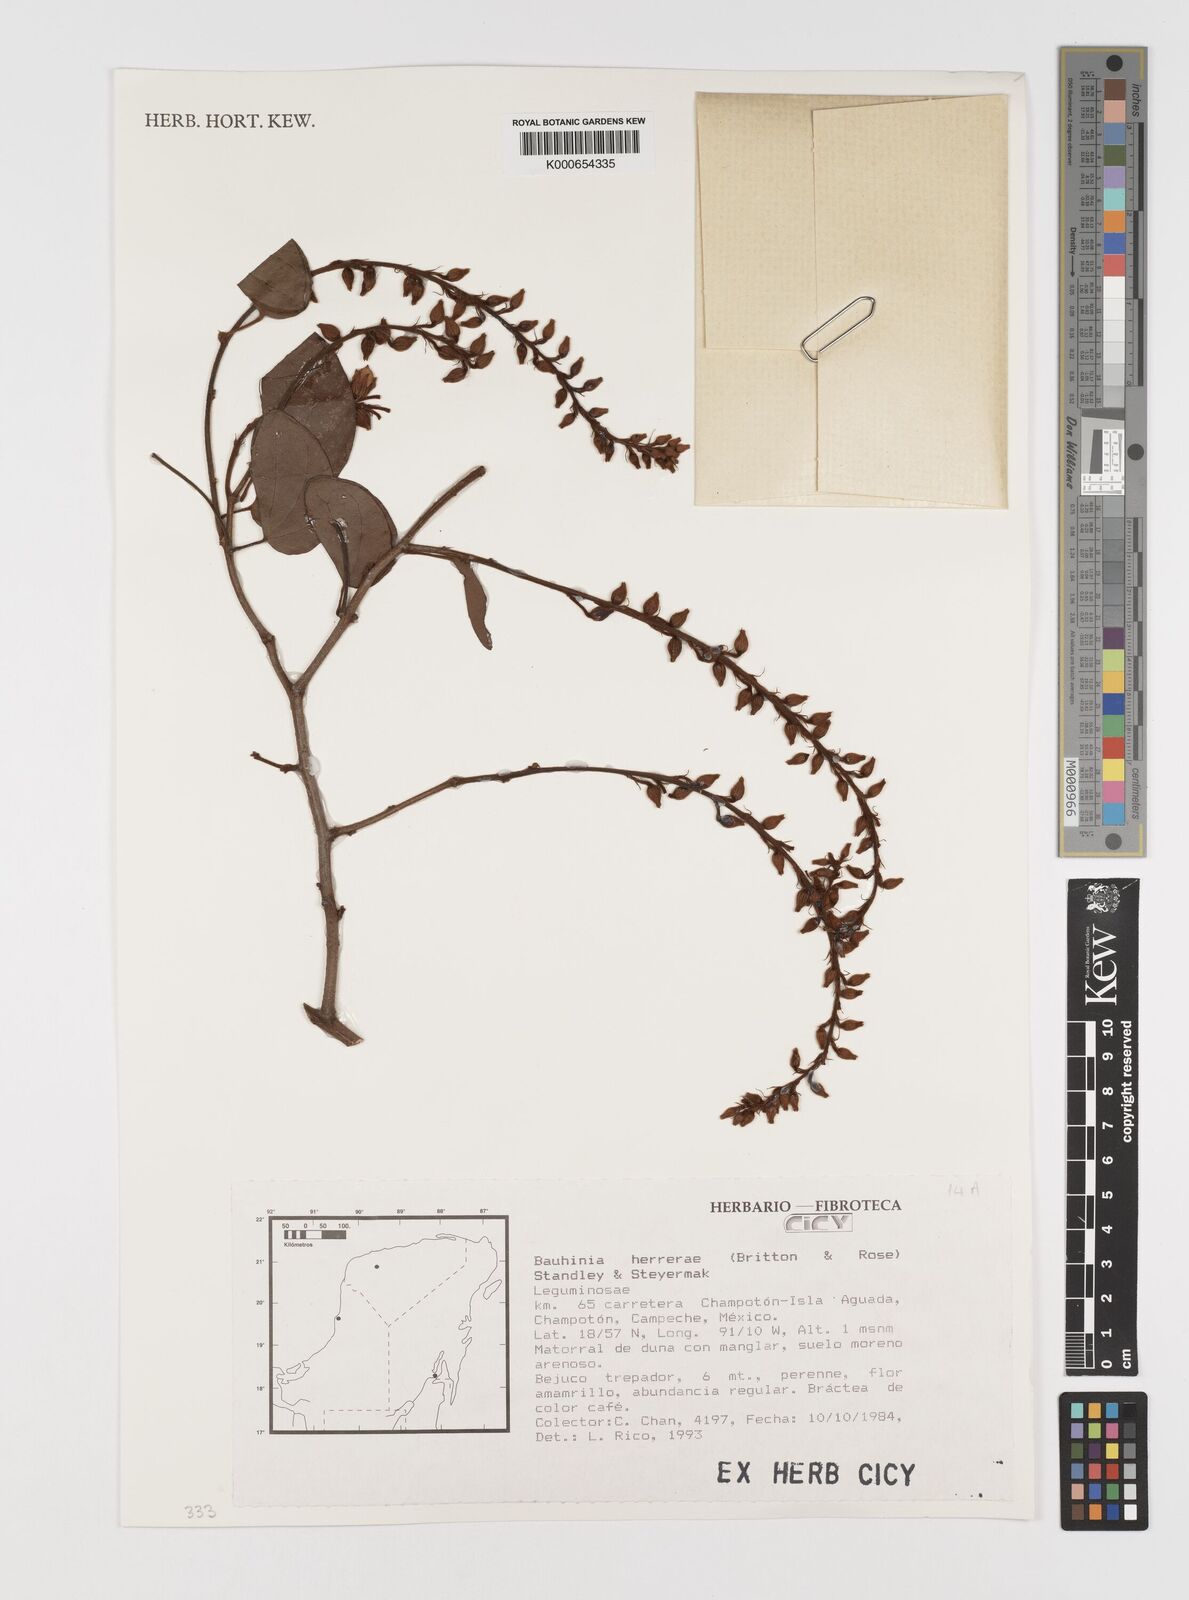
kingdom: Plantae
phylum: Tracheophyta
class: Magnoliopsida
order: Fabales
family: Fabaceae
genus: Schnella
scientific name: Schnella herrerae
